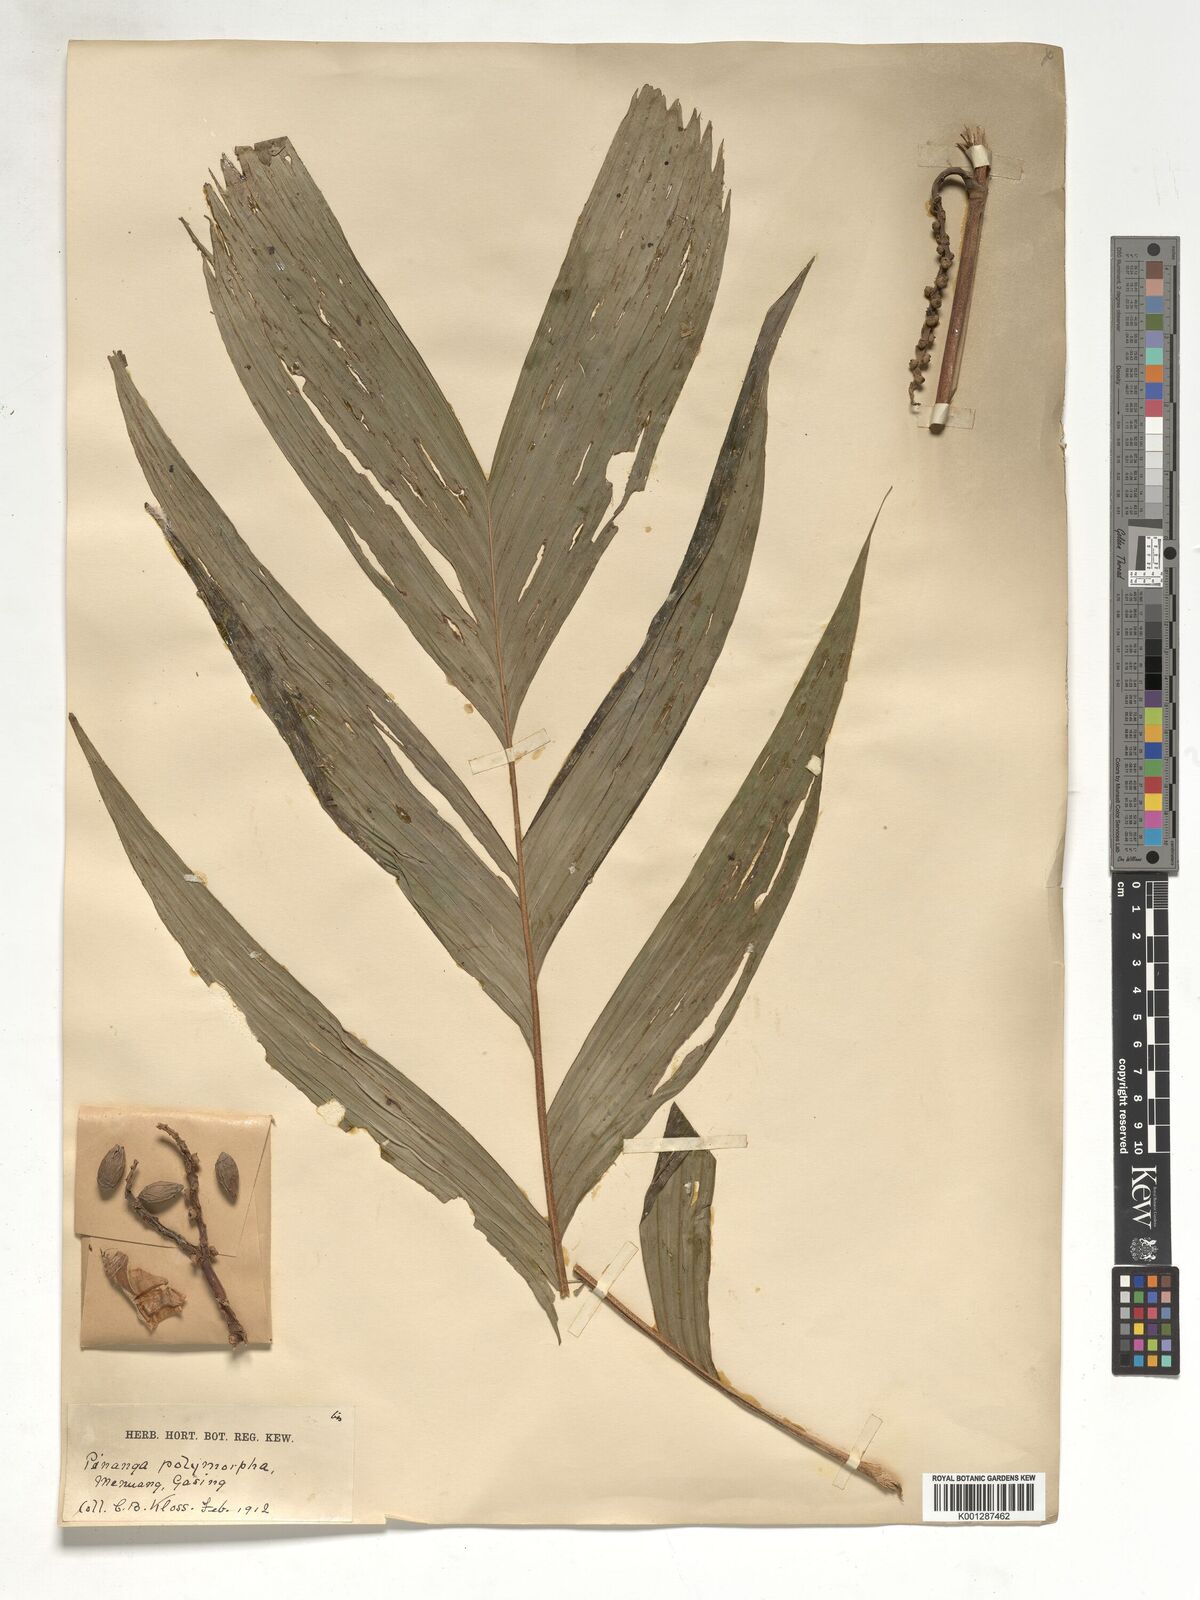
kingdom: Plantae
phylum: Tracheophyta
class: Liliopsida
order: Arecales
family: Arecaceae
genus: Pinanga
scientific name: Pinanga polymorpha
